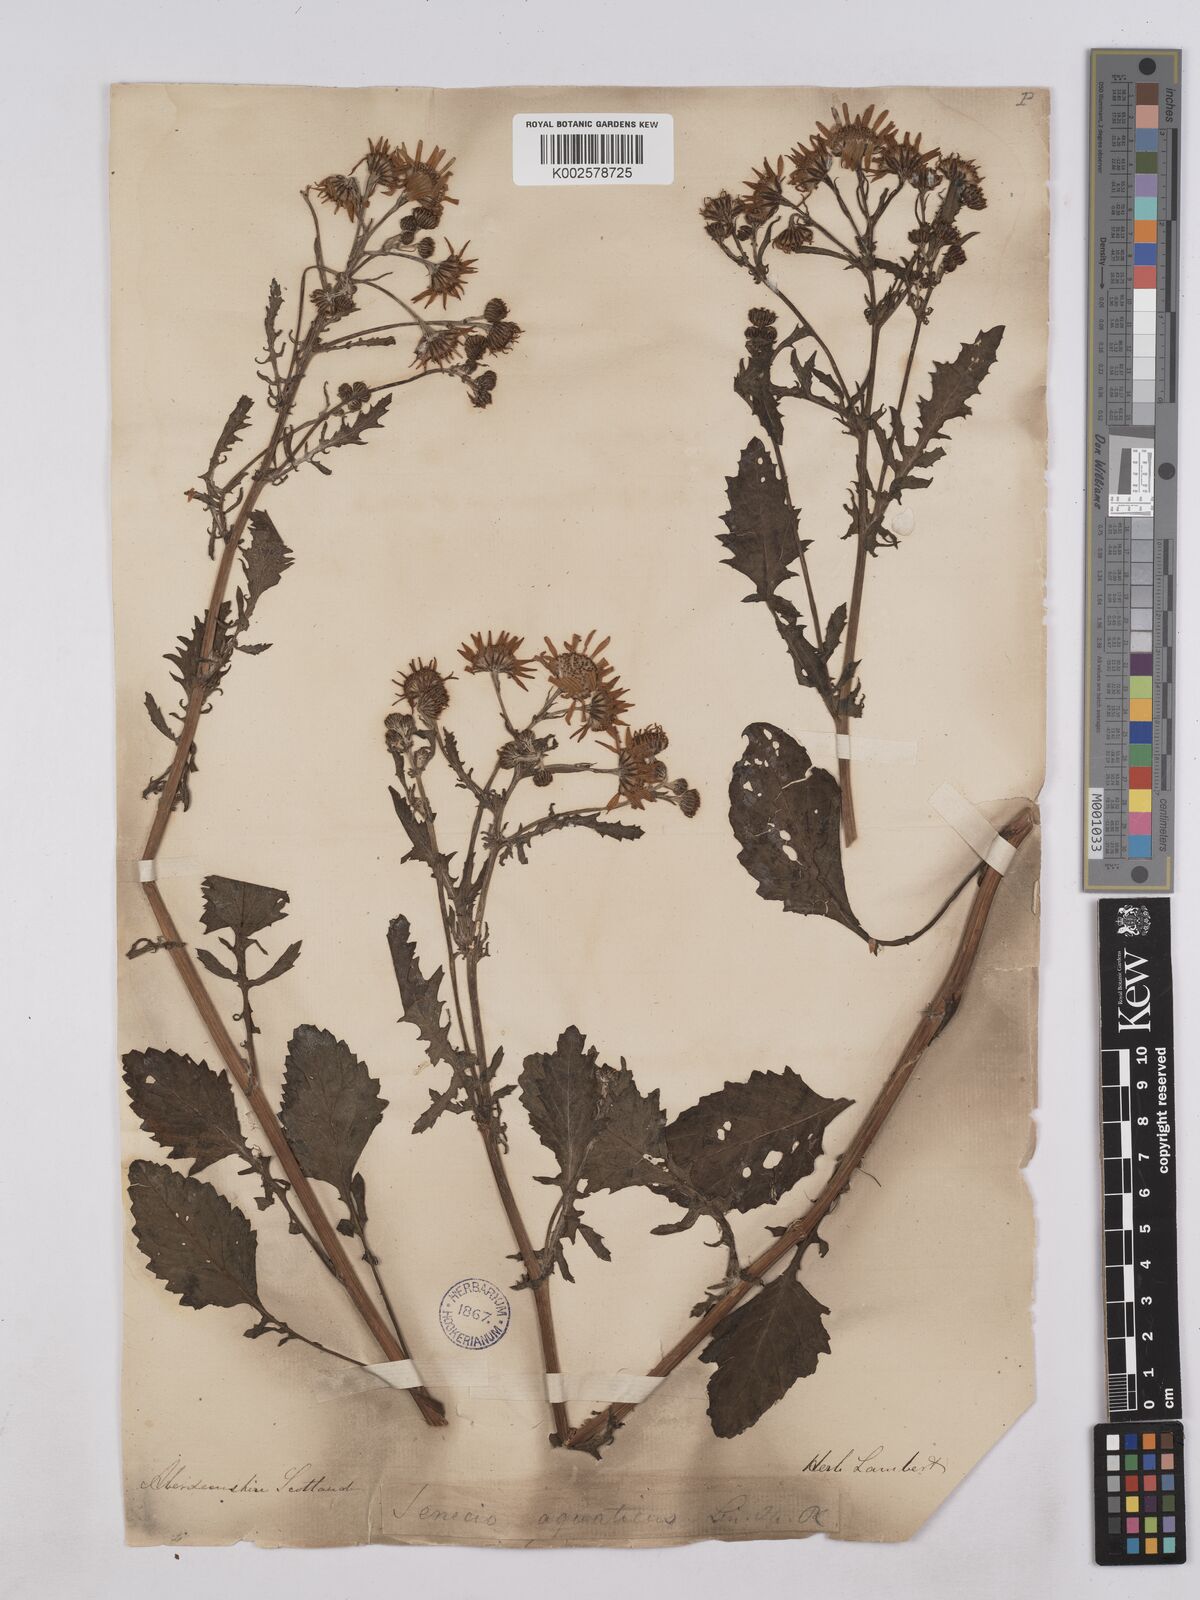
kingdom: Plantae
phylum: Tracheophyta
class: Magnoliopsida
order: Asterales
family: Asteraceae
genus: Jacobaea
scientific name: Jacobaea aquatica
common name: Water ragwort
